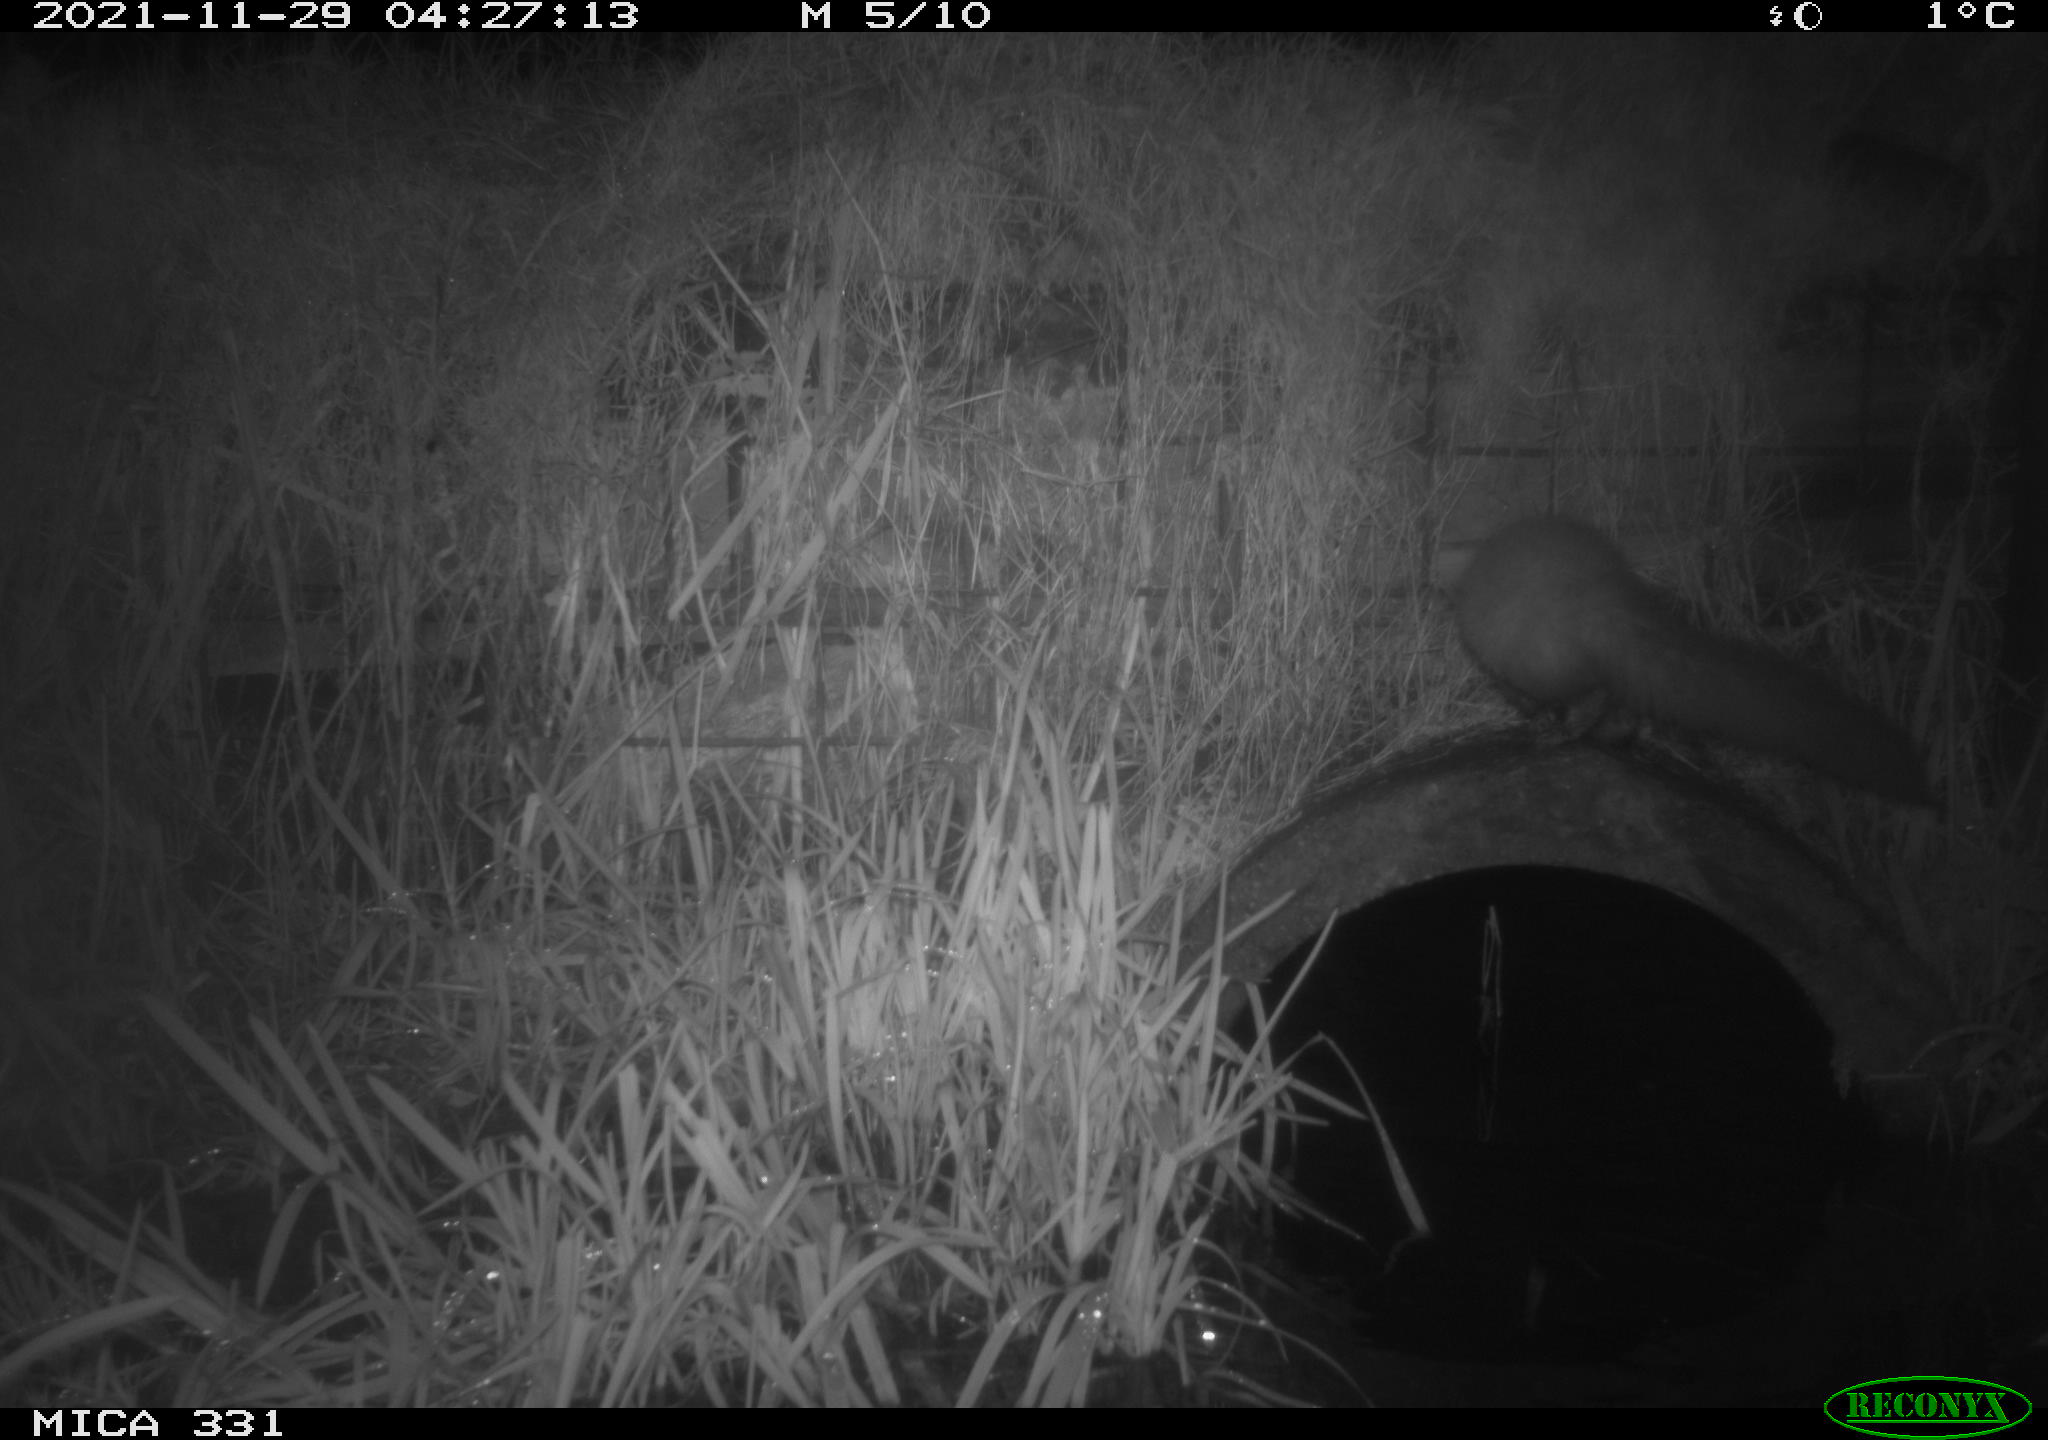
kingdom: Animalia
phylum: Chordata
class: Mammalia
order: Carnivora
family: Mustelidae
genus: Martes
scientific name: Martes foina
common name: Beech marten
